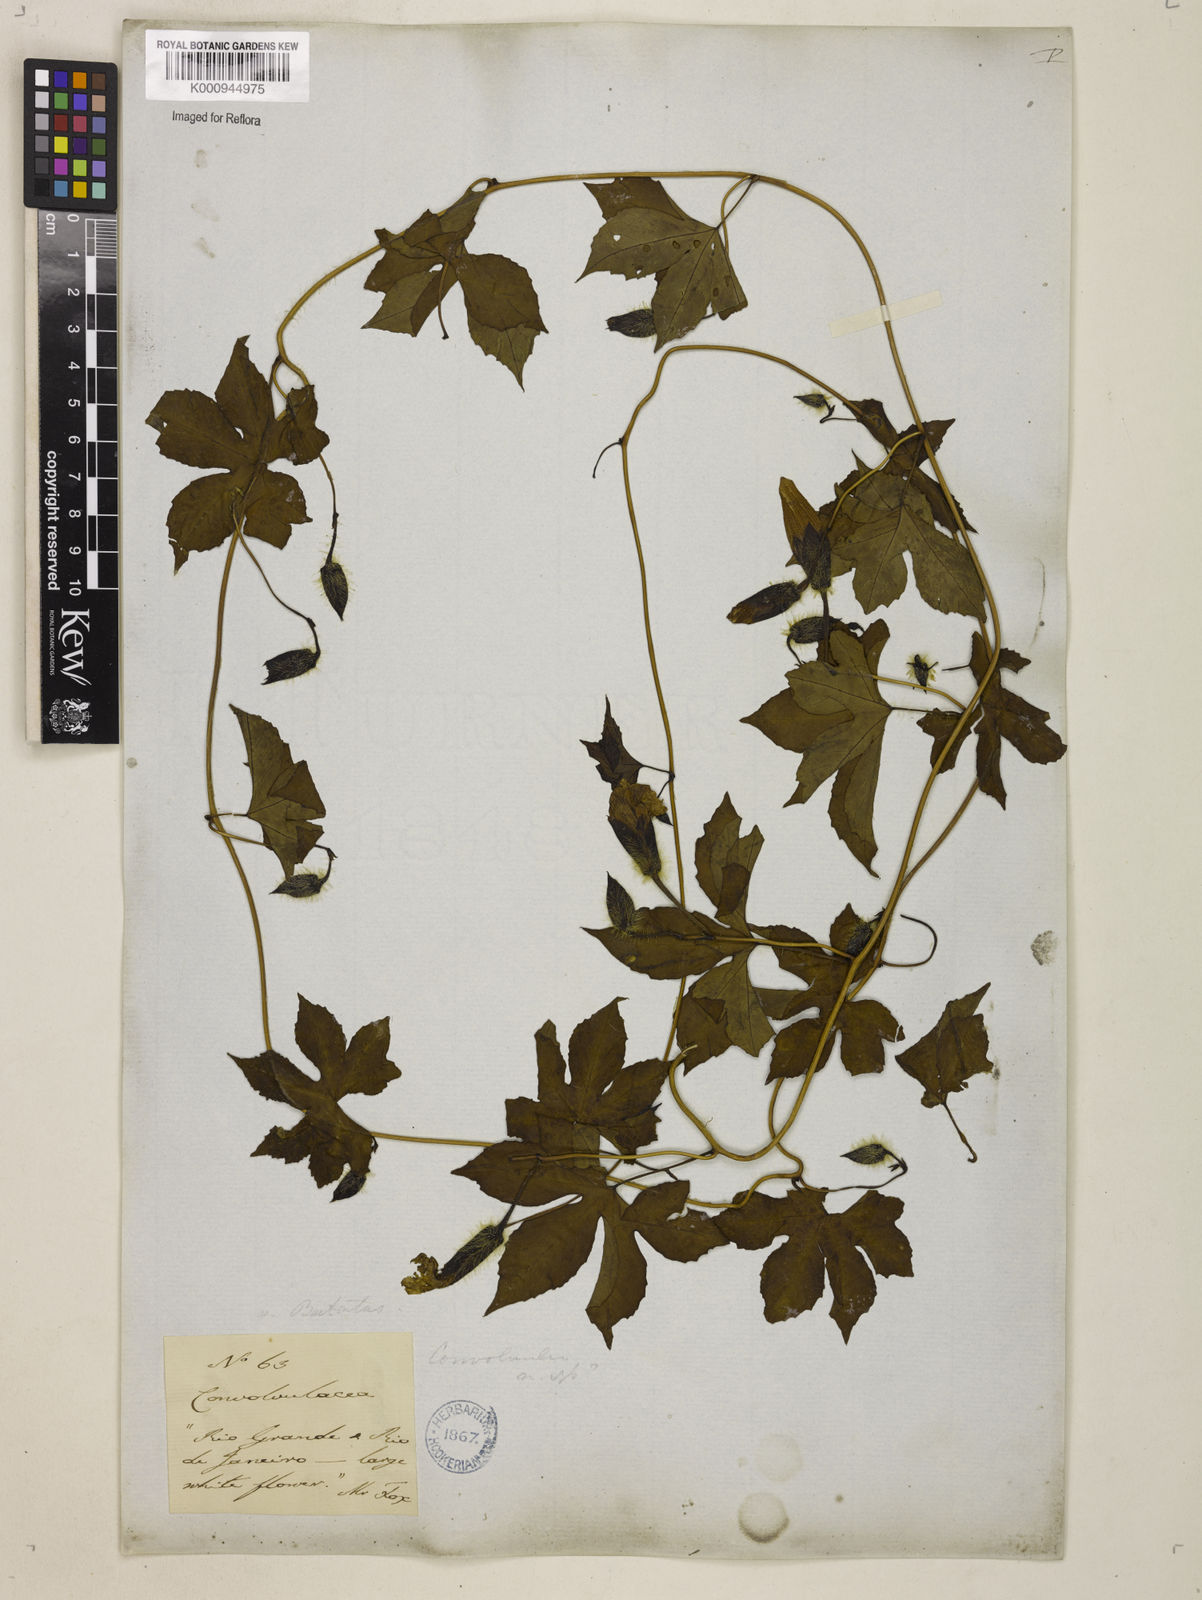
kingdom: Plantae
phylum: Tracheophyta
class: Magnoliopsida
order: Solanales
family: Convolvulaceae
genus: Distimake
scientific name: Distimake dissectus
